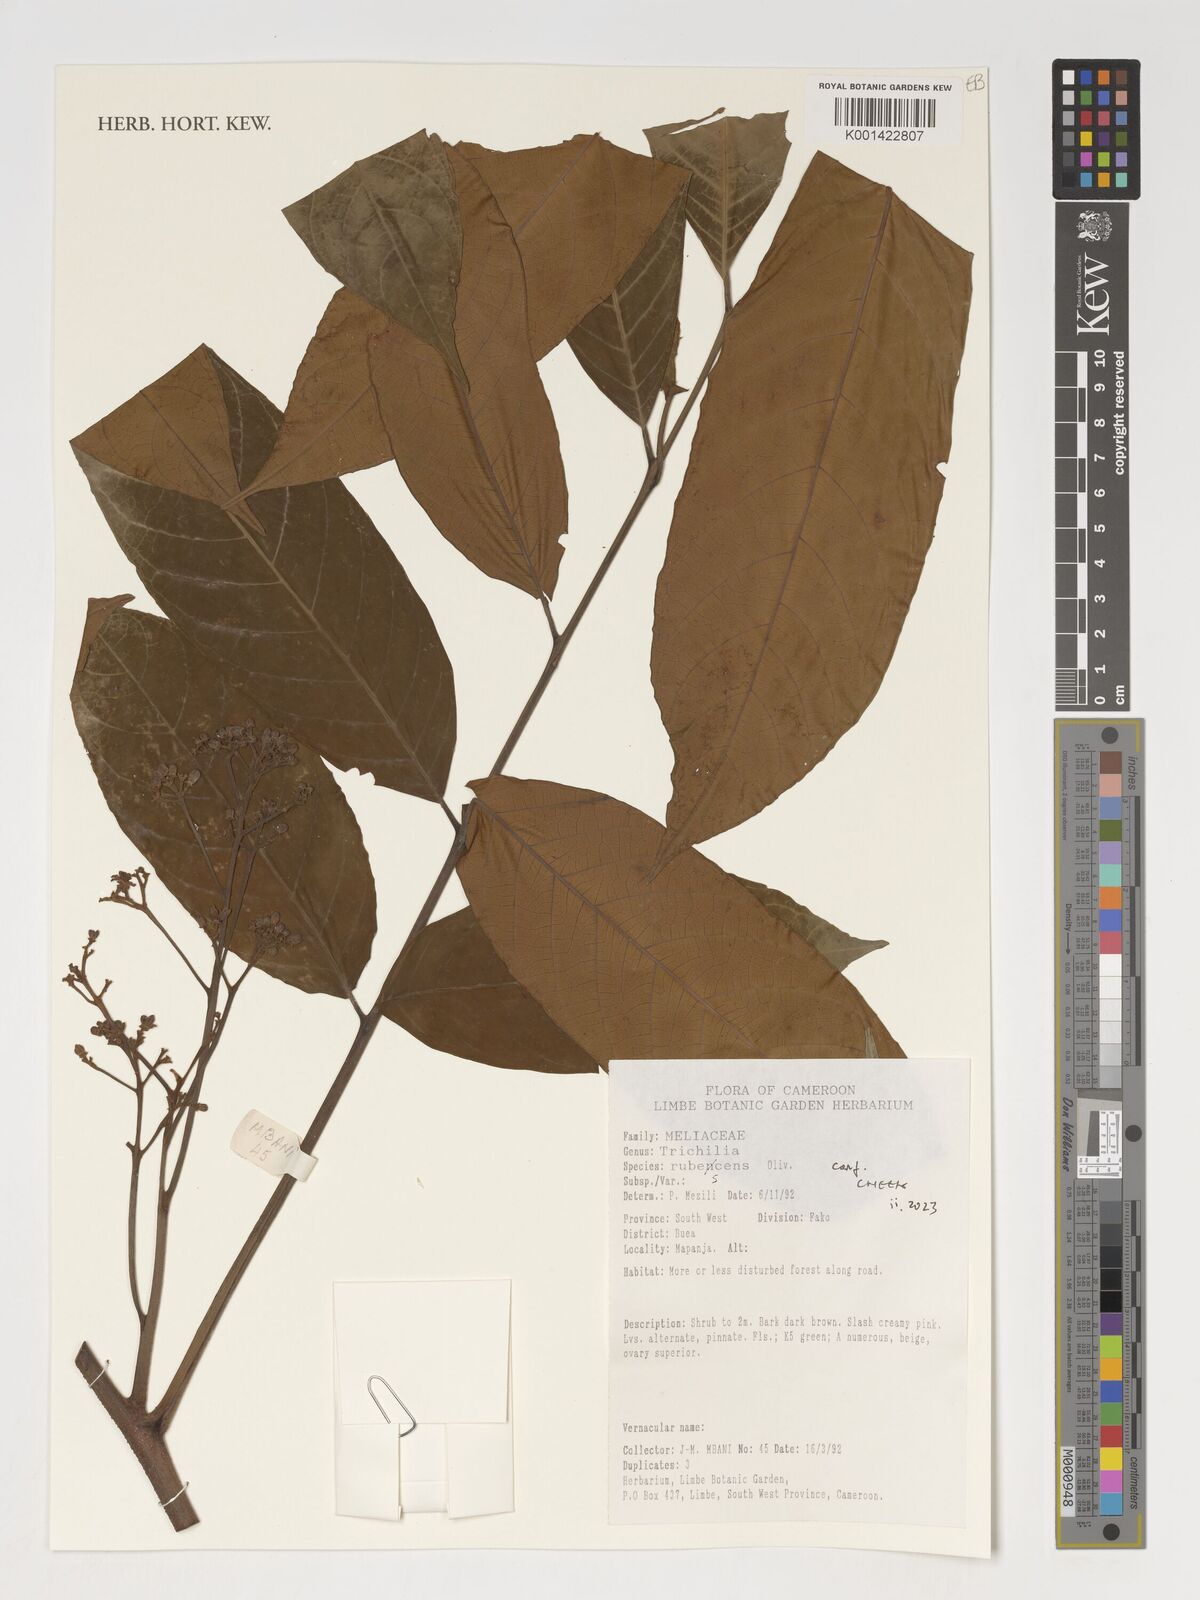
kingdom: Plantae
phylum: Tracheophyta
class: Magnoliopsida
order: Sapindales
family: Meliaceae
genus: Trichilia
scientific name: Trichilia rubescens
